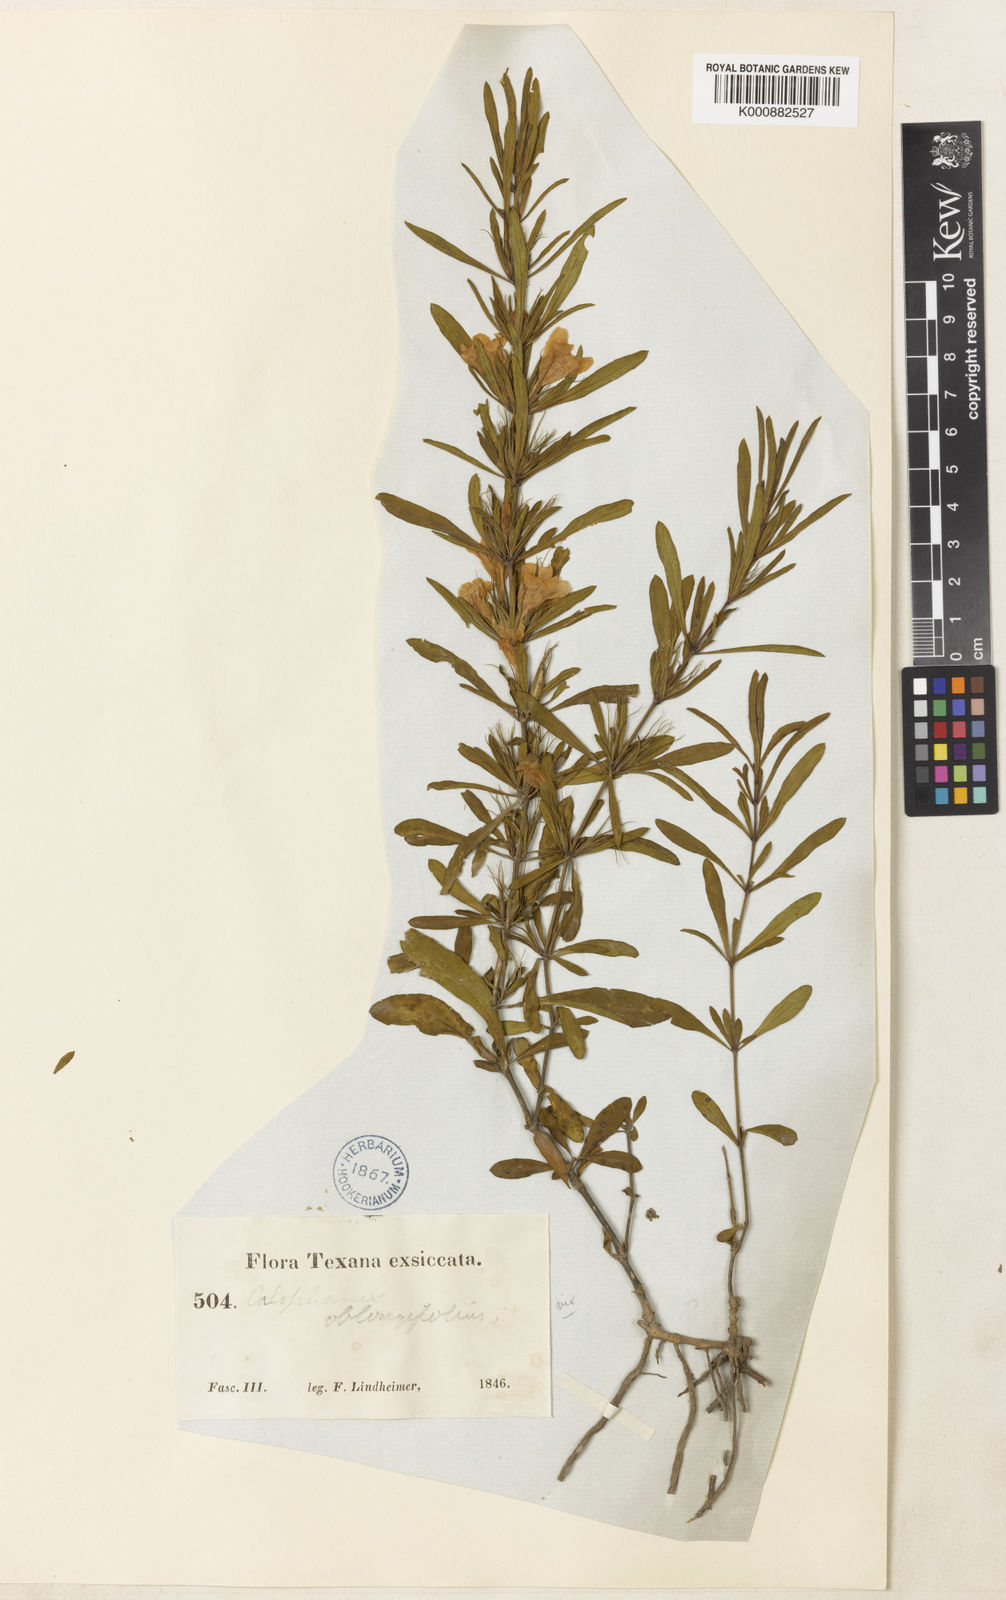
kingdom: Plantae
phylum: Tracheophyta
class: Magnoliopsida
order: Lamiales
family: Acanthaceae
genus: Dyschoriste
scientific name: Dyschoriste linearis
